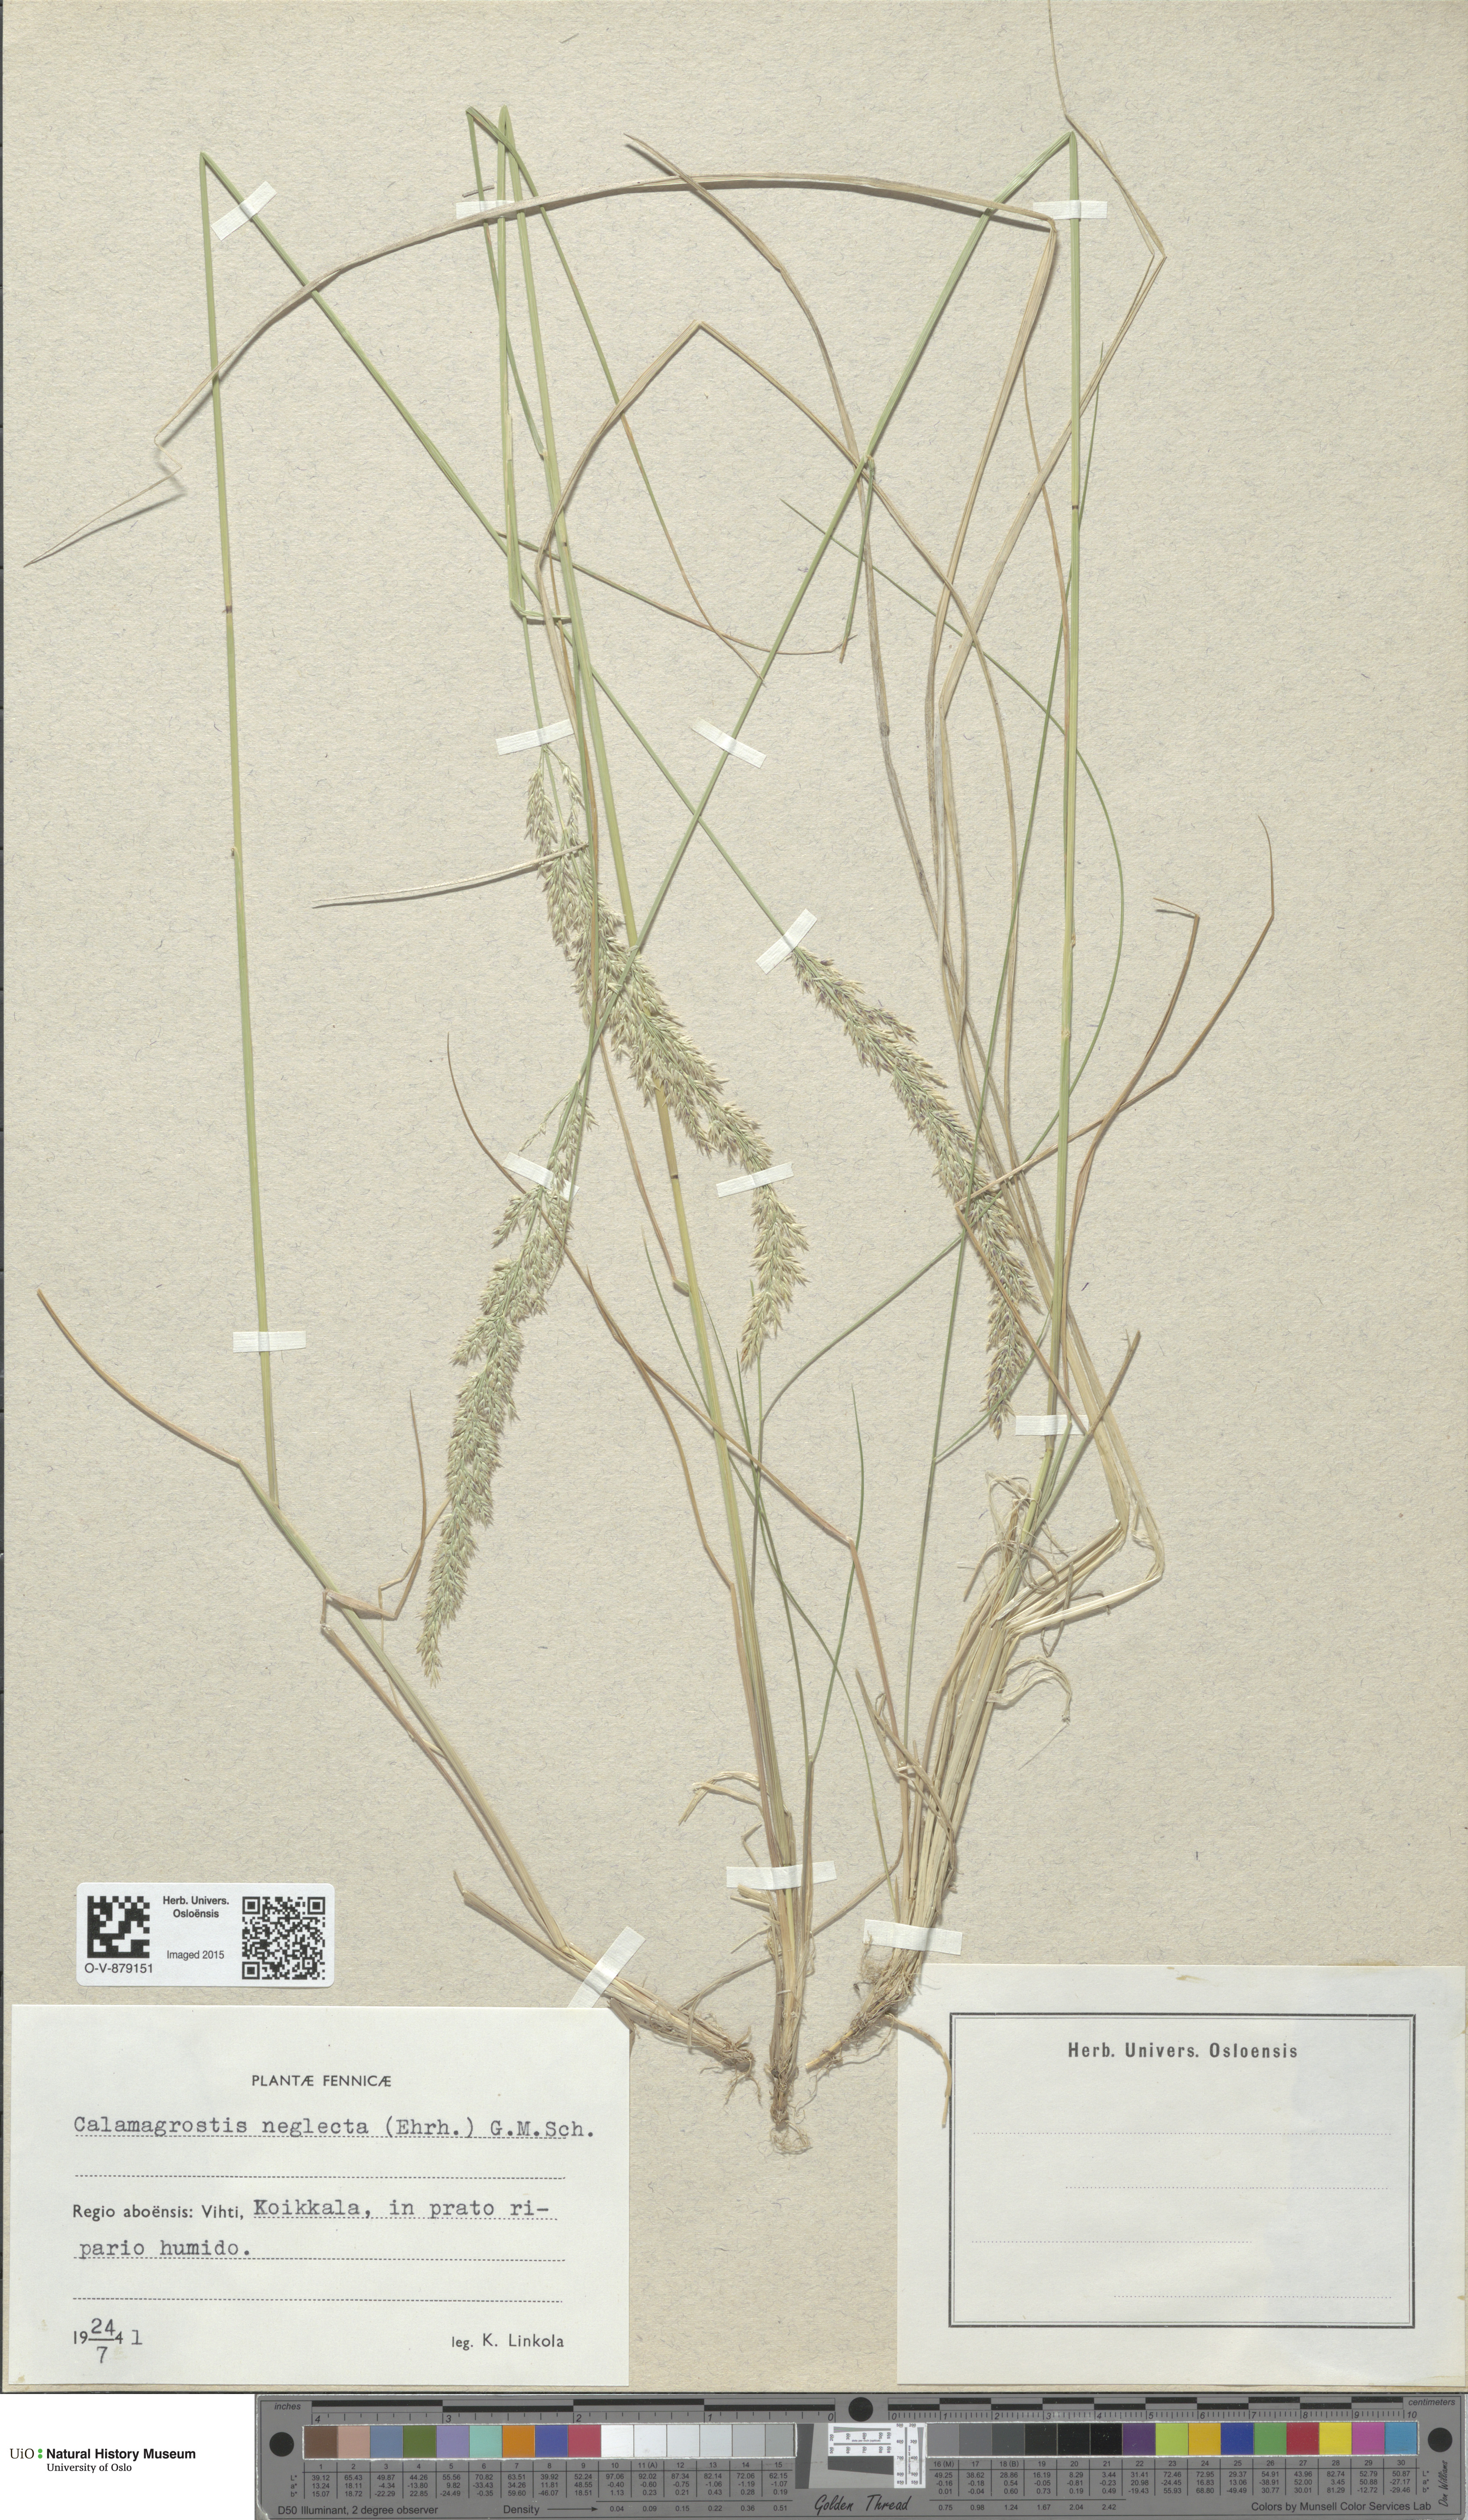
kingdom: Plantae
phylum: Tracheophyta
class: Liliopsida
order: Poales
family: Poaceae
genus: Achnatherum
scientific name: Achnatherum calamagrostis
